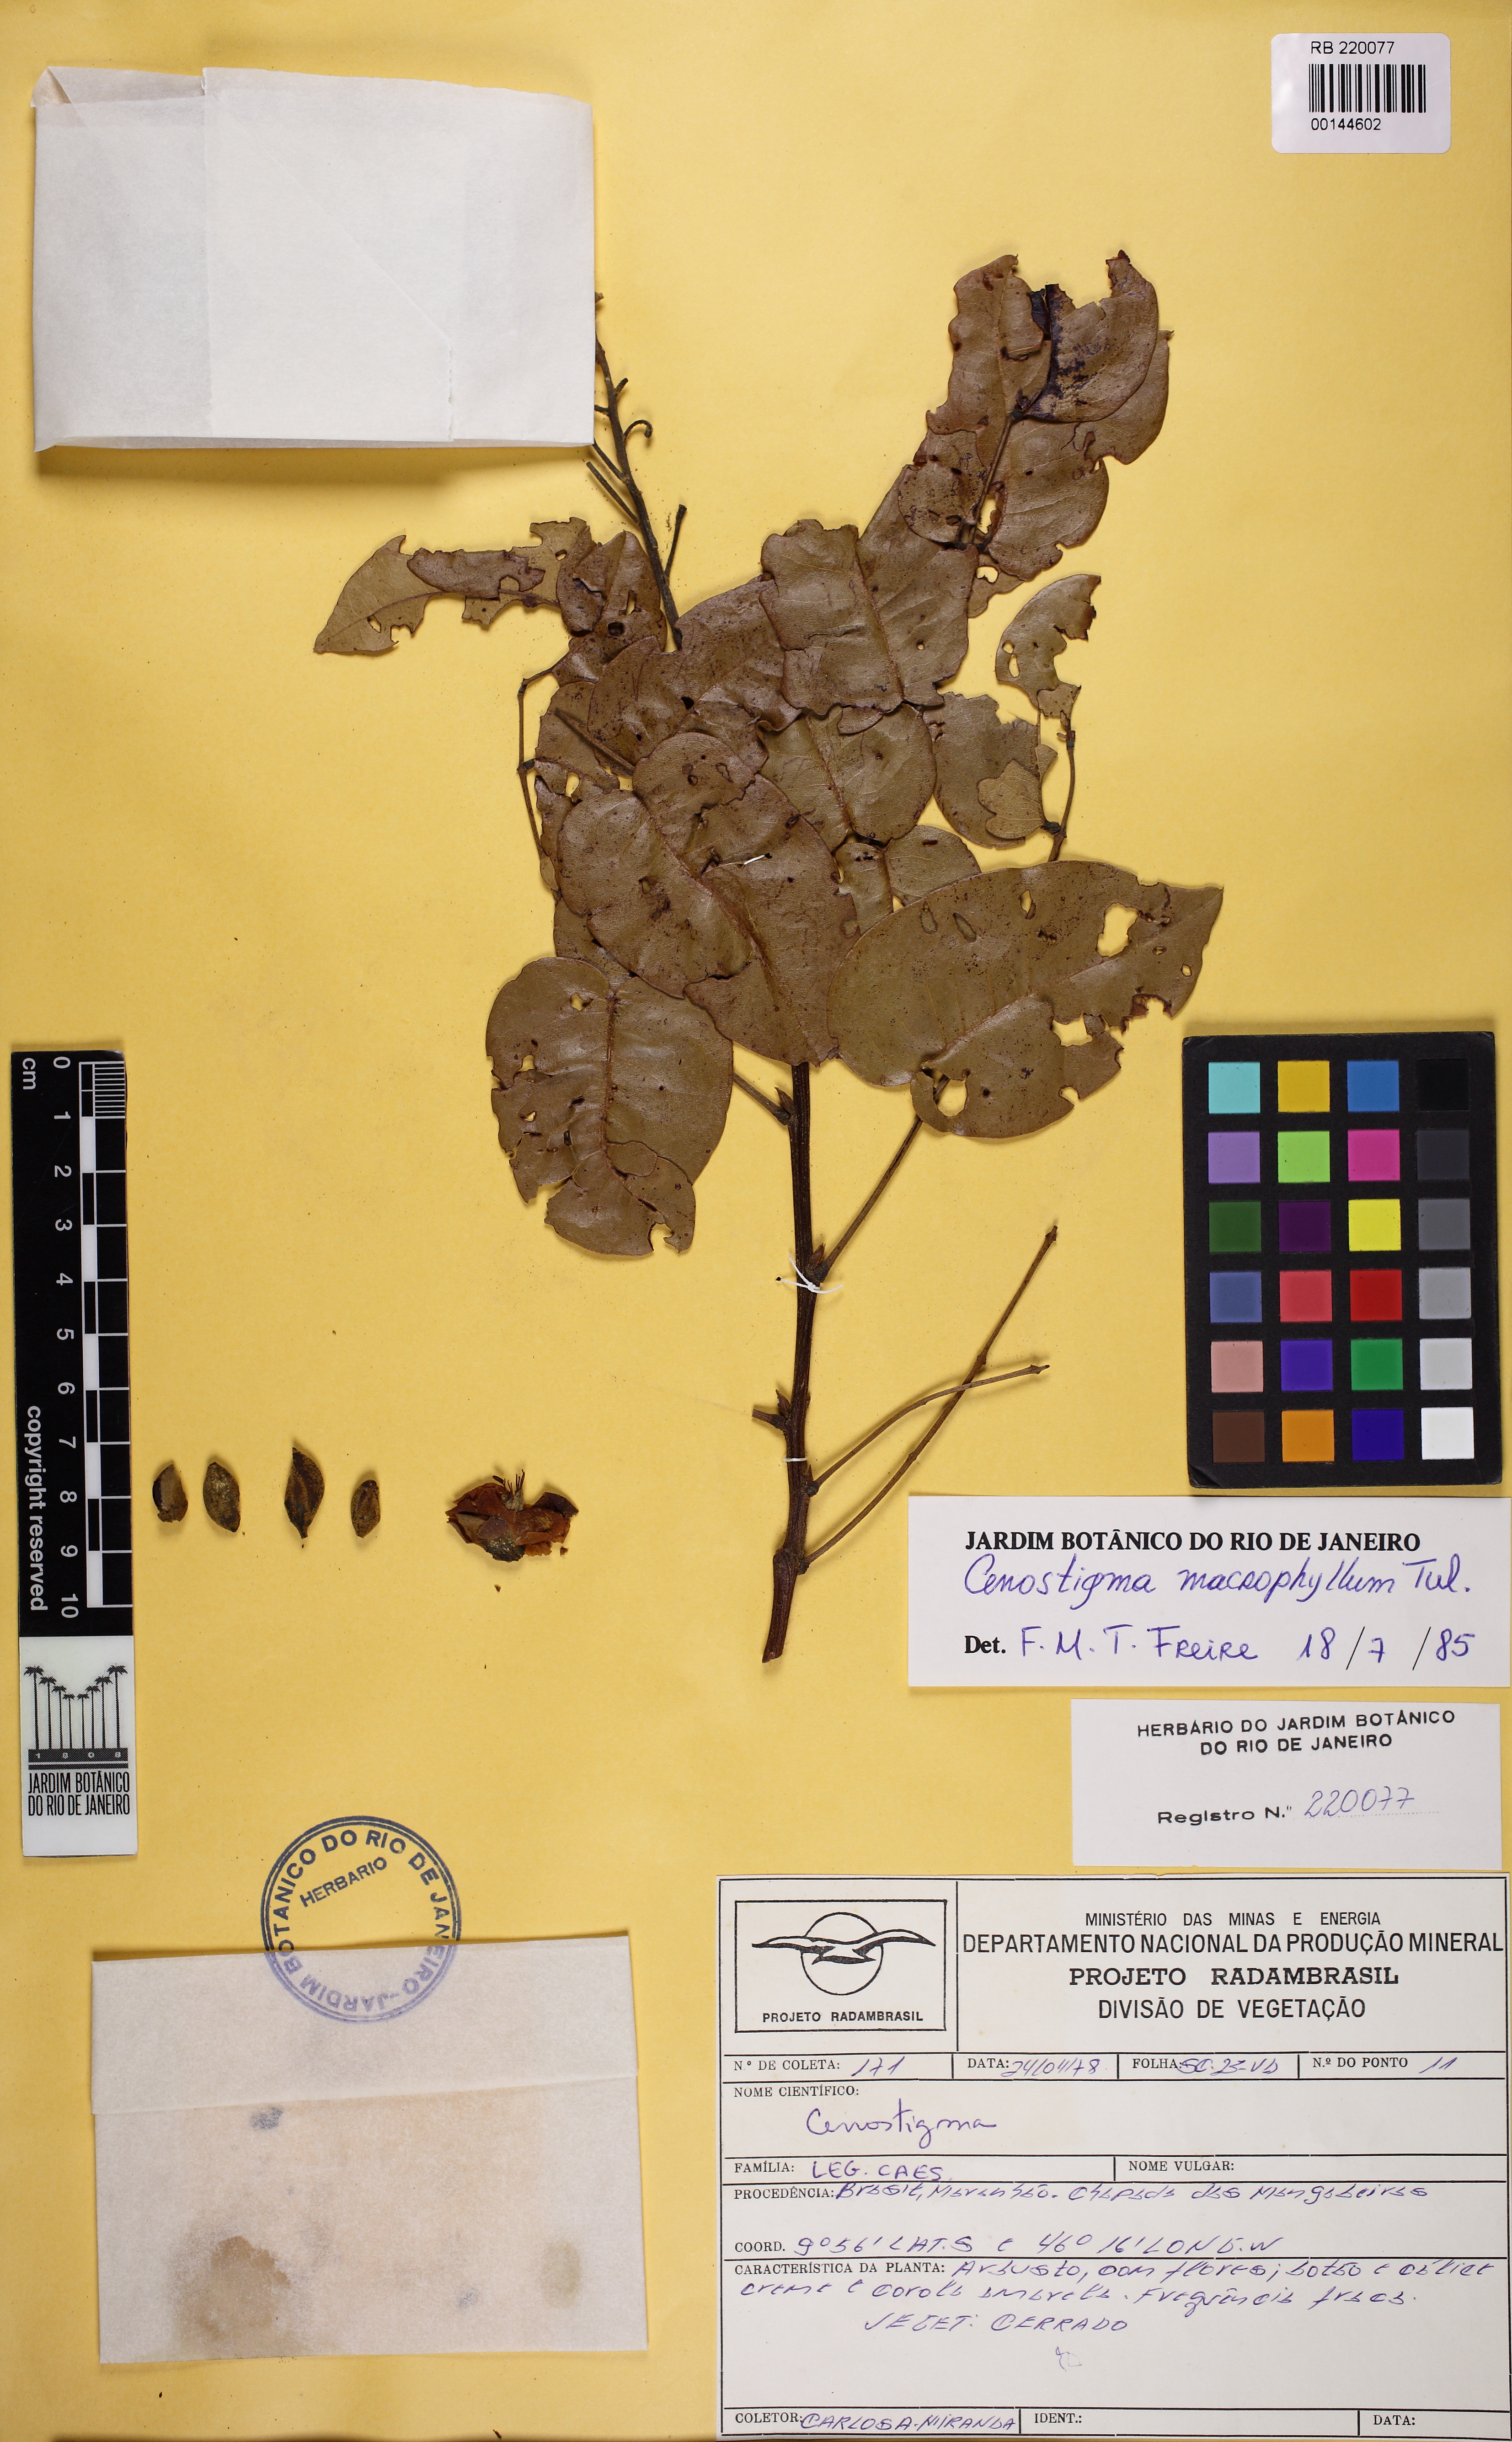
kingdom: Plantae
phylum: Tracheophyta
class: Magnoliopsida
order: Fabales
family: Fabaceae
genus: Cenostigma
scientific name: Cenostigma macrophyllum
